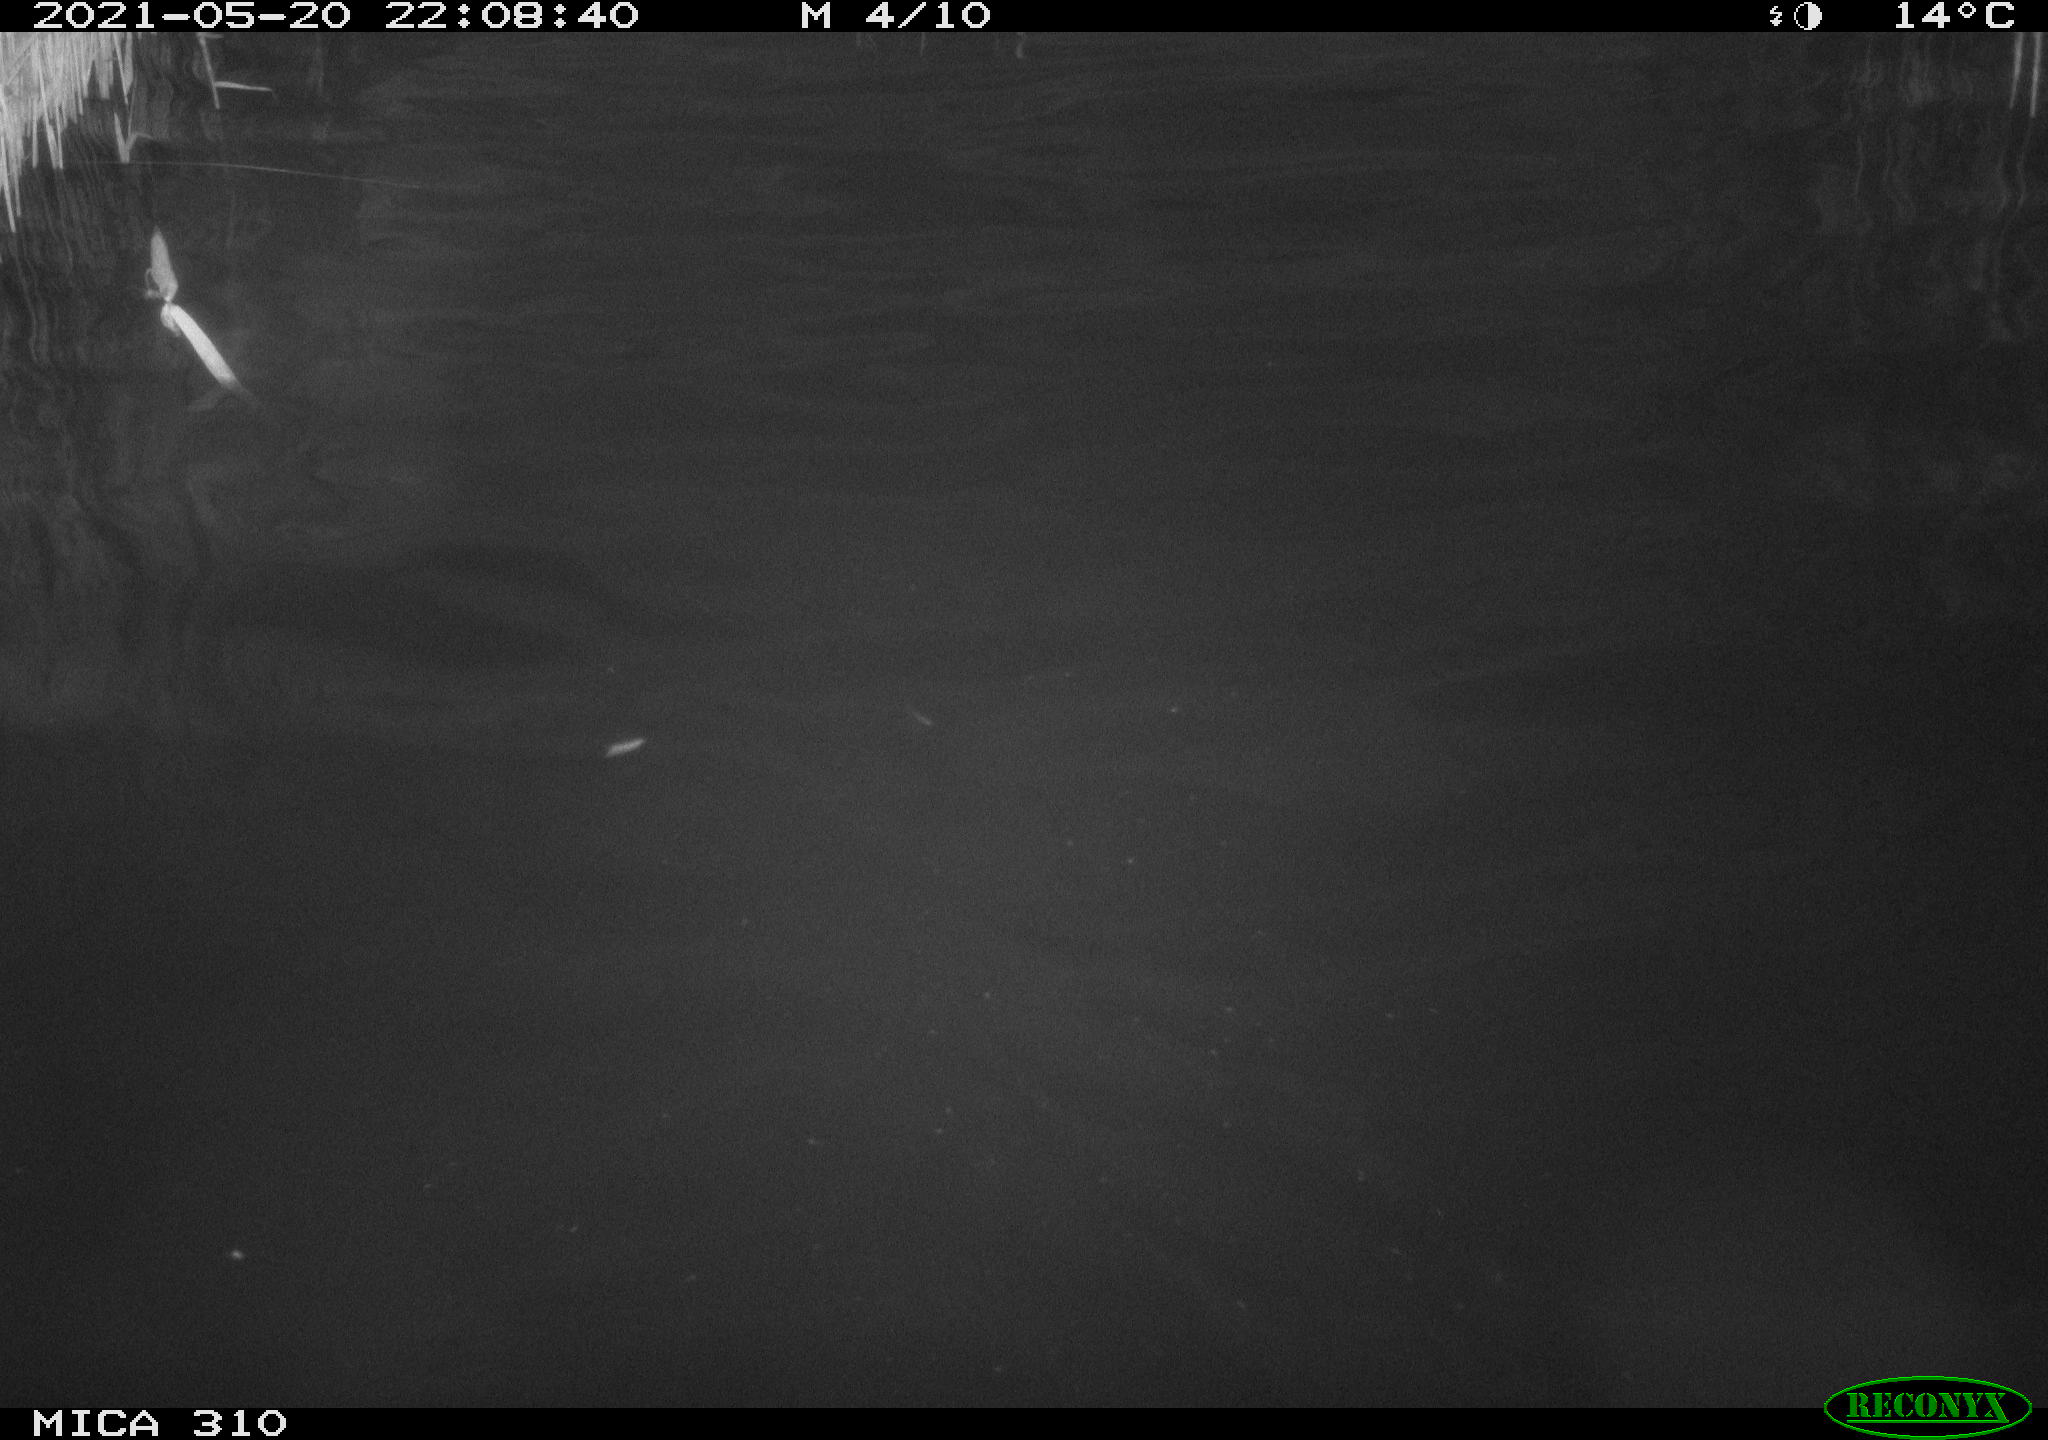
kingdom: Animalia
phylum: Chordata
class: Aves
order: Anseriformes
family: Anatidae
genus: Anas
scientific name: Anas platyrhynchos
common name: Mallard
